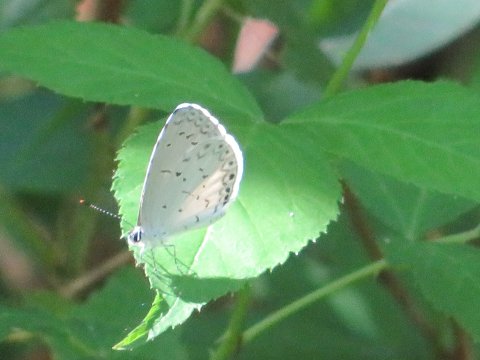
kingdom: Animalia
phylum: Arthropoda
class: Insecta
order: Lepidoptera
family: Lycaenidae
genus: Cyaniris
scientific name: Cyaniris neglecta
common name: Summer Azure
